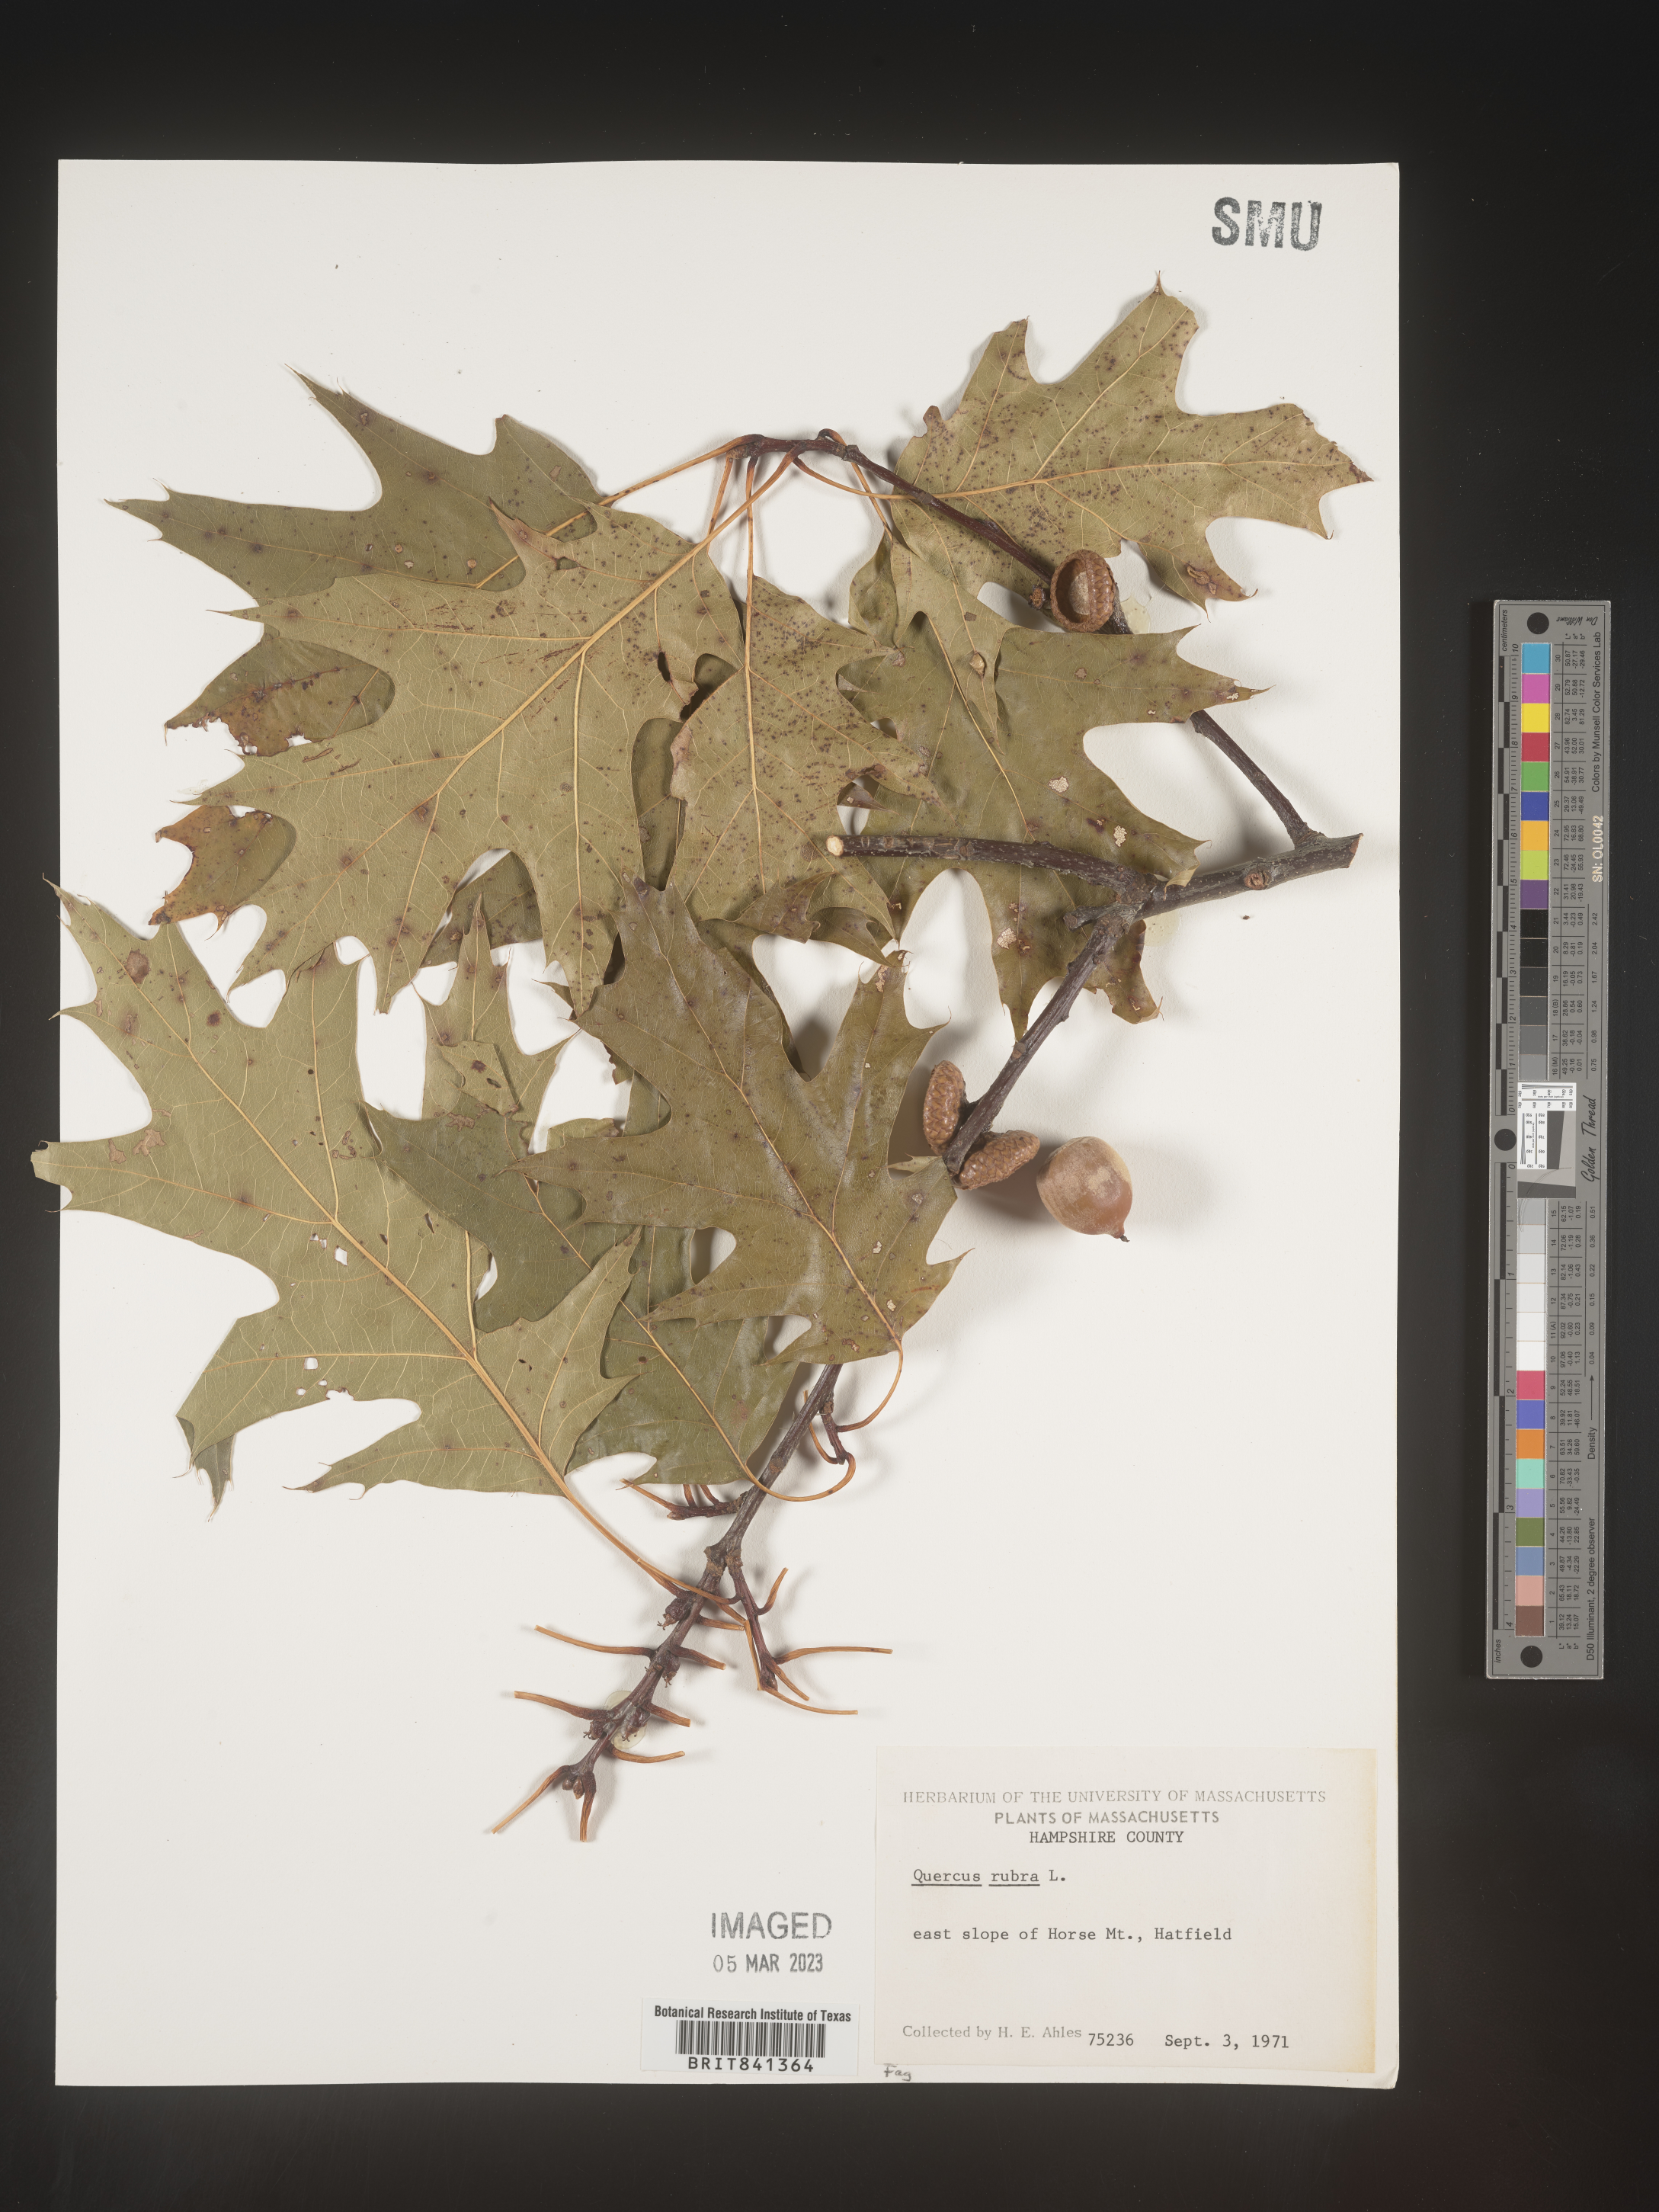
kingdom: Plantae
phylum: Tracheophyta
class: Magnoliopsida
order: Fagales
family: Fagaceae
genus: Quercus
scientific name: Quercus rubra
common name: Red oak
